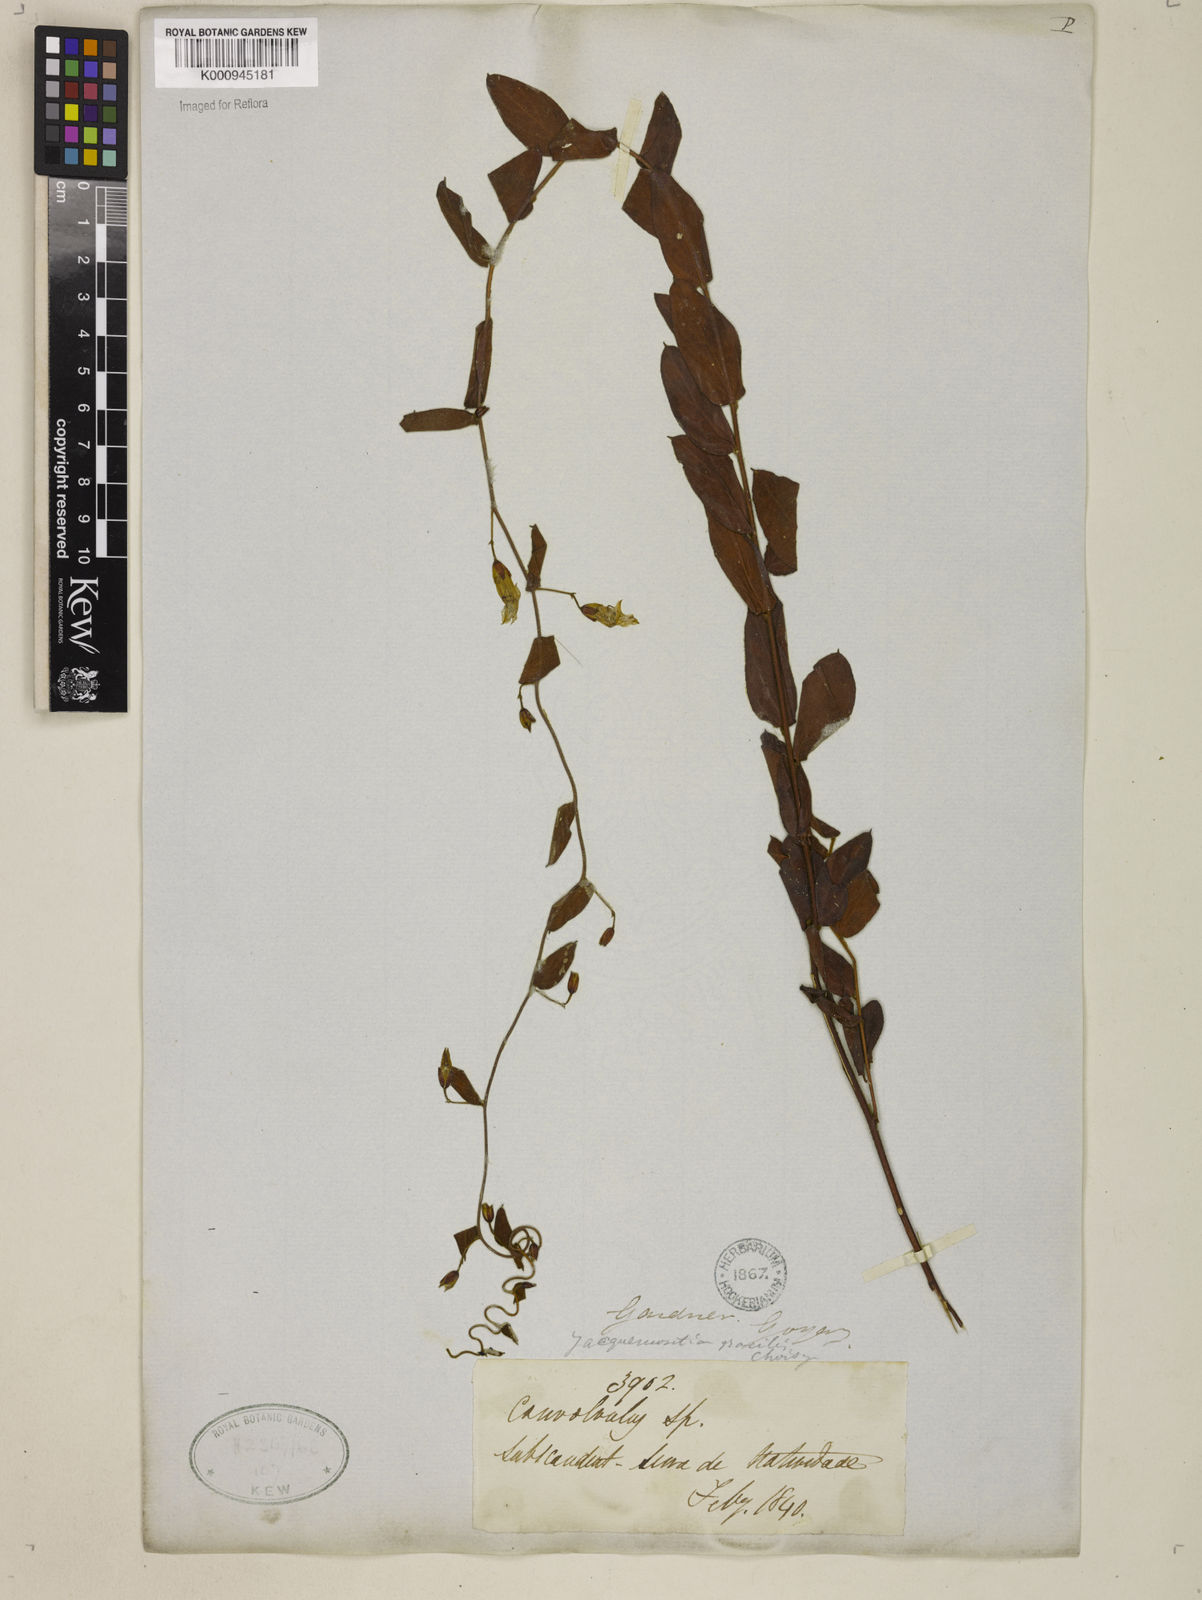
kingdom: Plantae
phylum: Tracheophyta
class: Magnoliopsida
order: Solanales
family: Convolvulaceae
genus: Jacquemontia
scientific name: Jacquemontia gracilis
